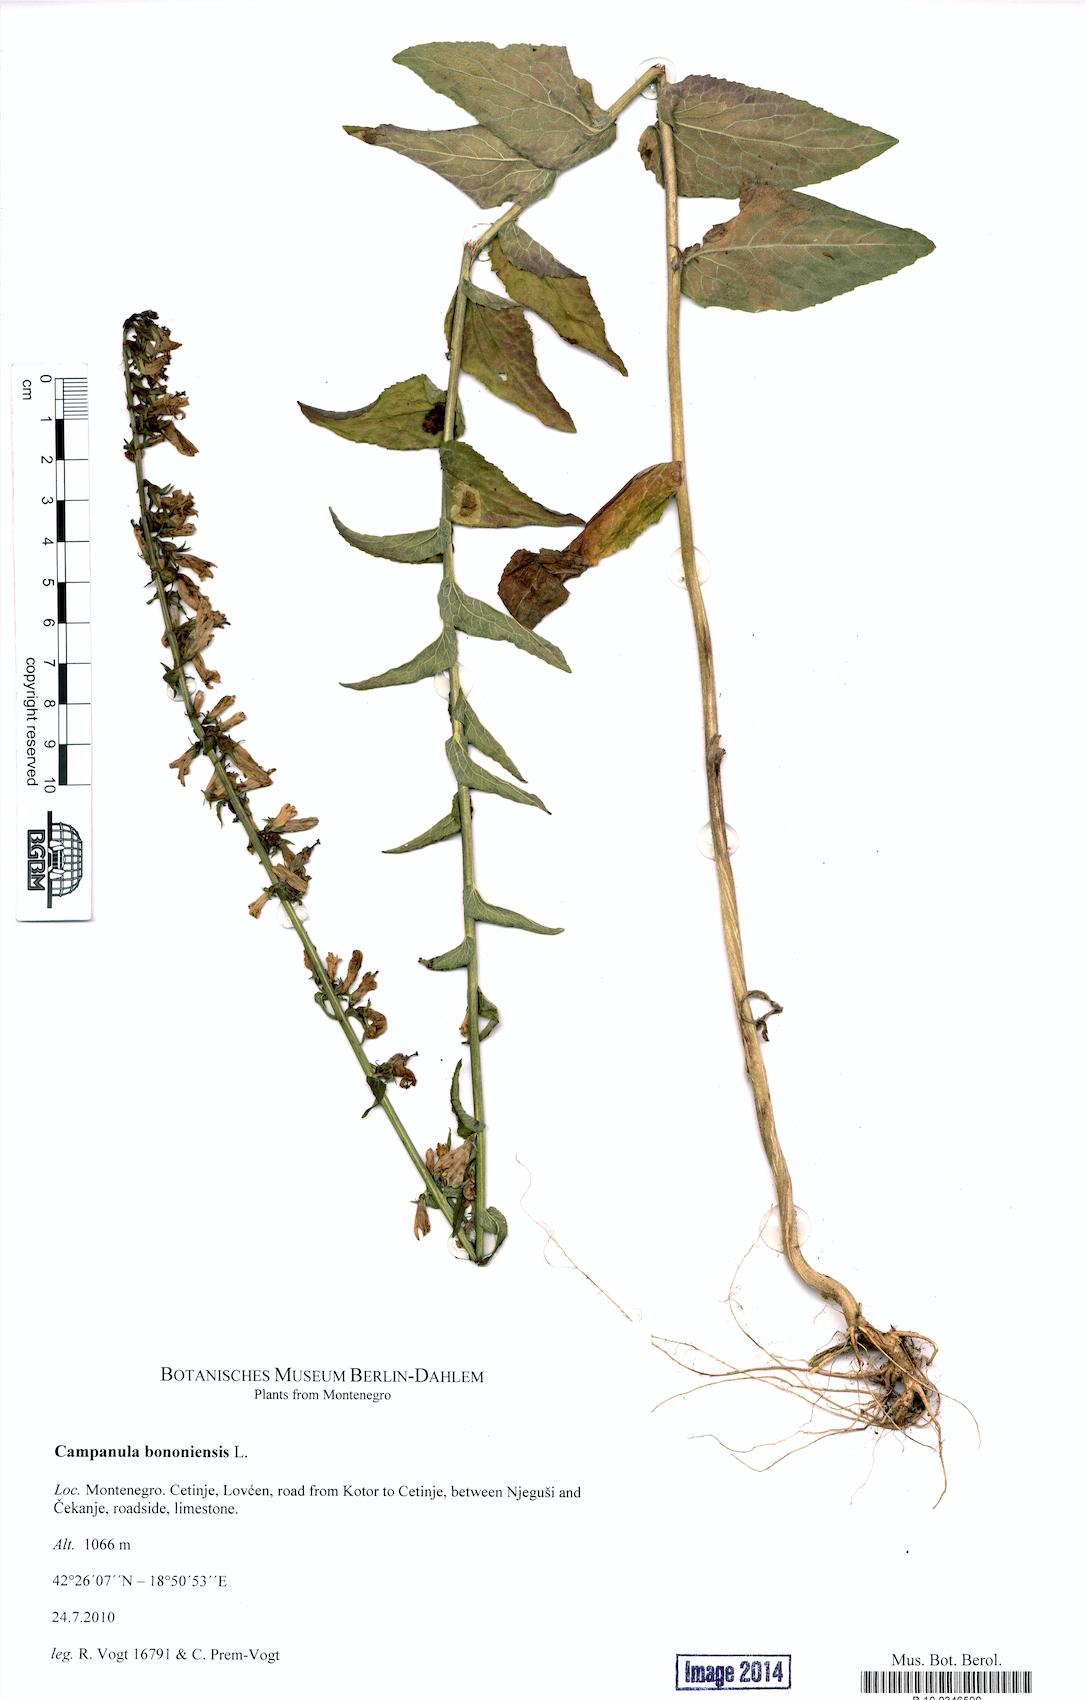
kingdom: Plantae
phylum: Tracheophyta
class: Magnoliopsida
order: Asterales
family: Campanulaceae
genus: Campanula
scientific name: Campanula bononiensis
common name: Pale bellflower
